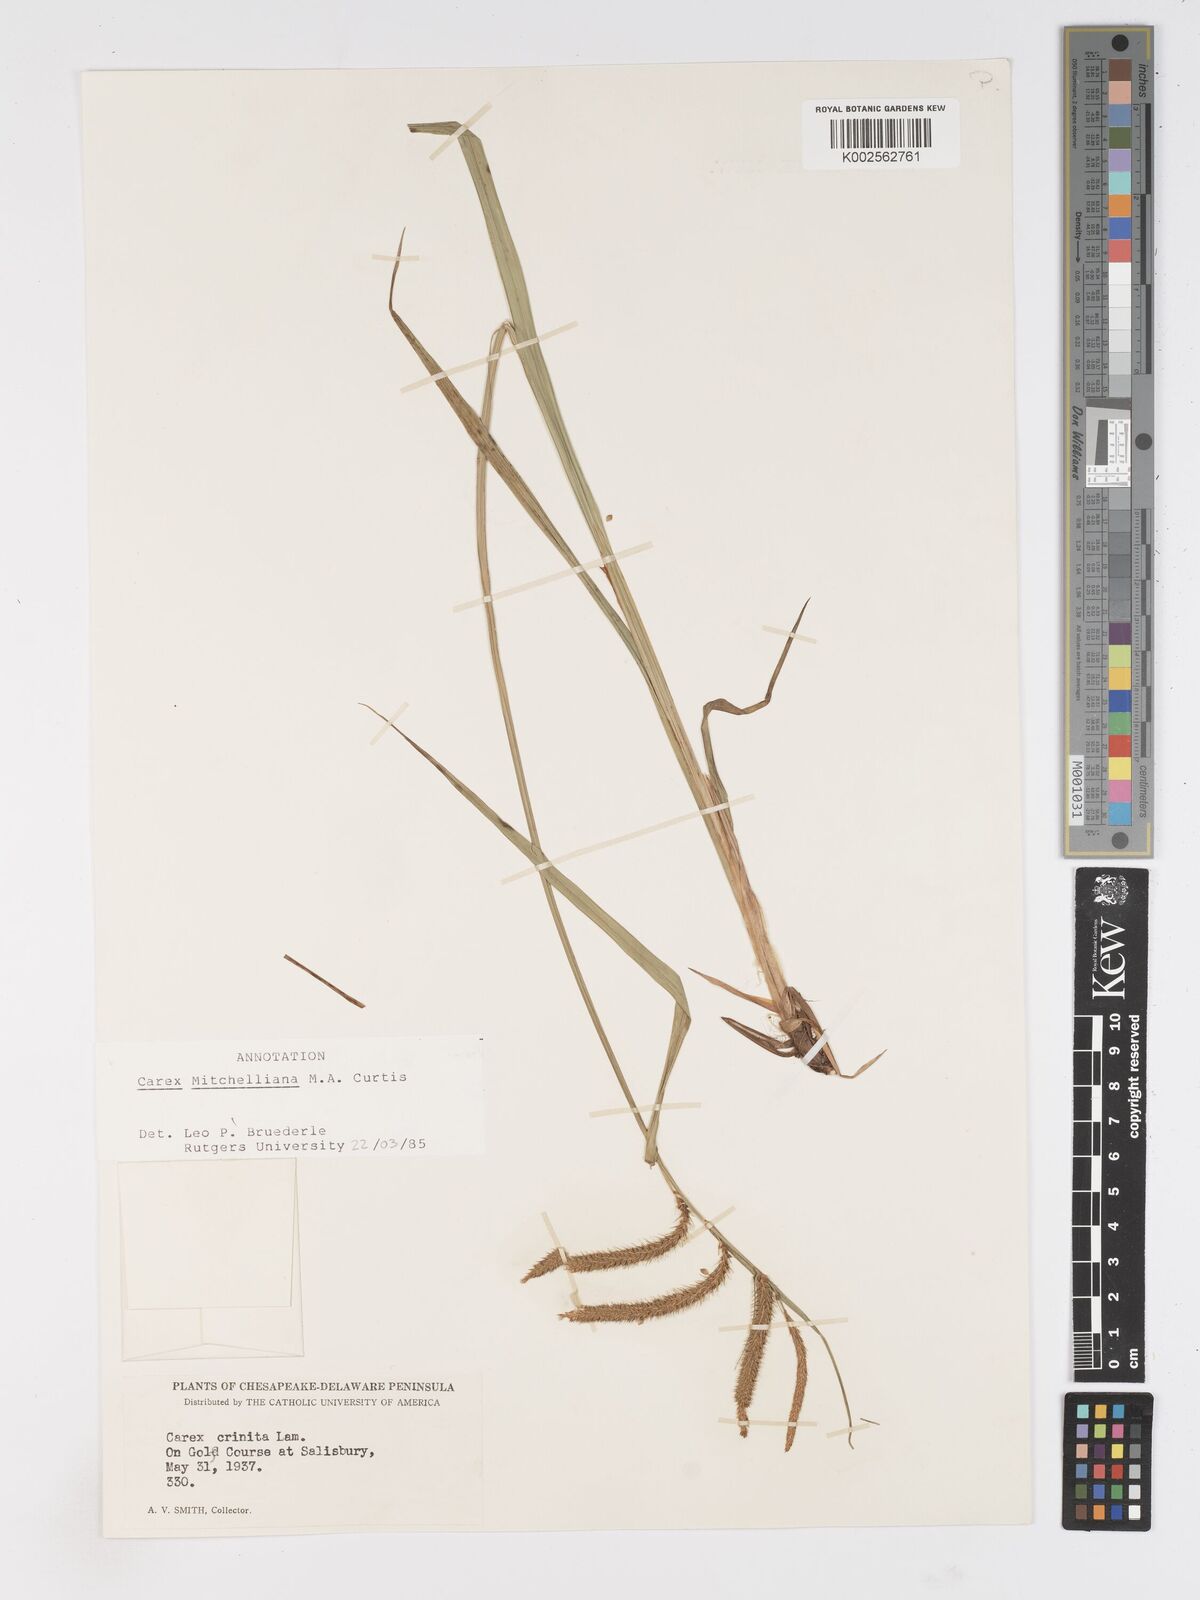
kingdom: Plantae
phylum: Tracheophyta
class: Liliopsida
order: Poales
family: Cyperaceae
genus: Carex
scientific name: Carex mitchelliana
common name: Mitchell's sedge
